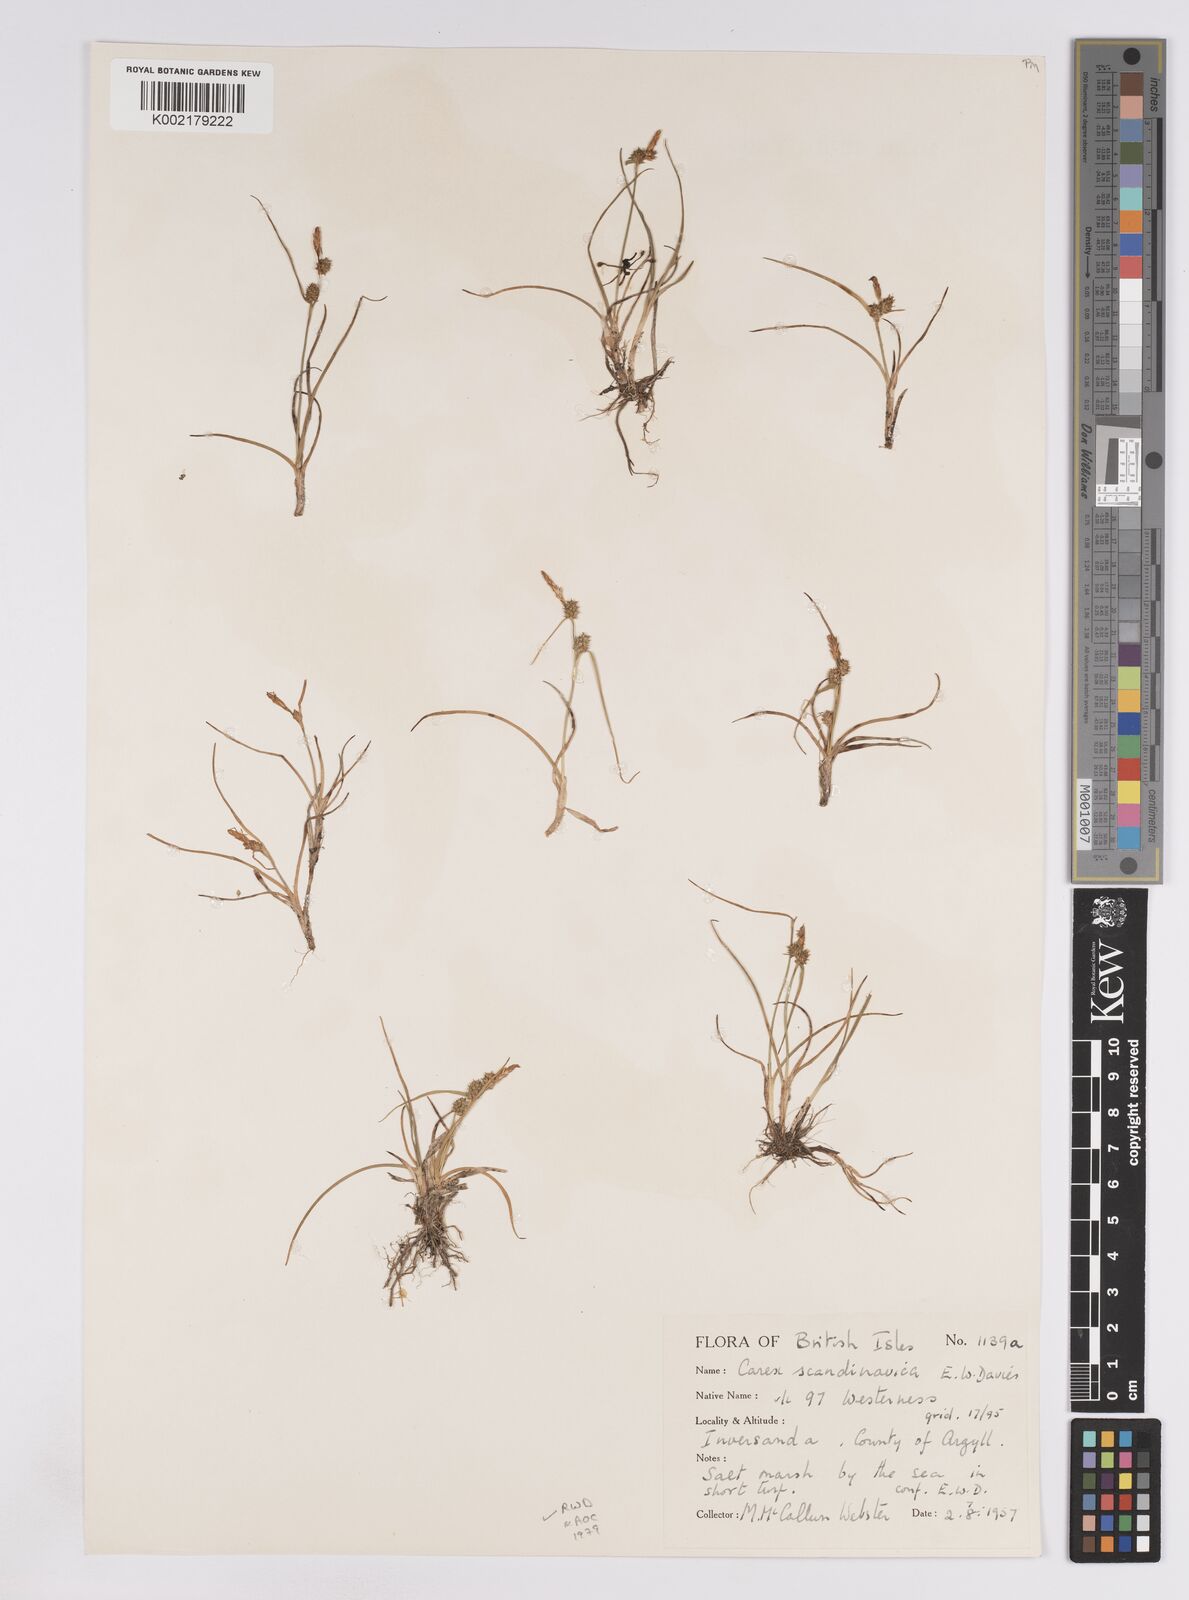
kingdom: Plantae
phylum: Tracheophyta
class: Liliopsida
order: Poales
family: Cyperaceae
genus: Carex
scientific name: Carex oederi
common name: Common & small-fruited yellow-sedge
